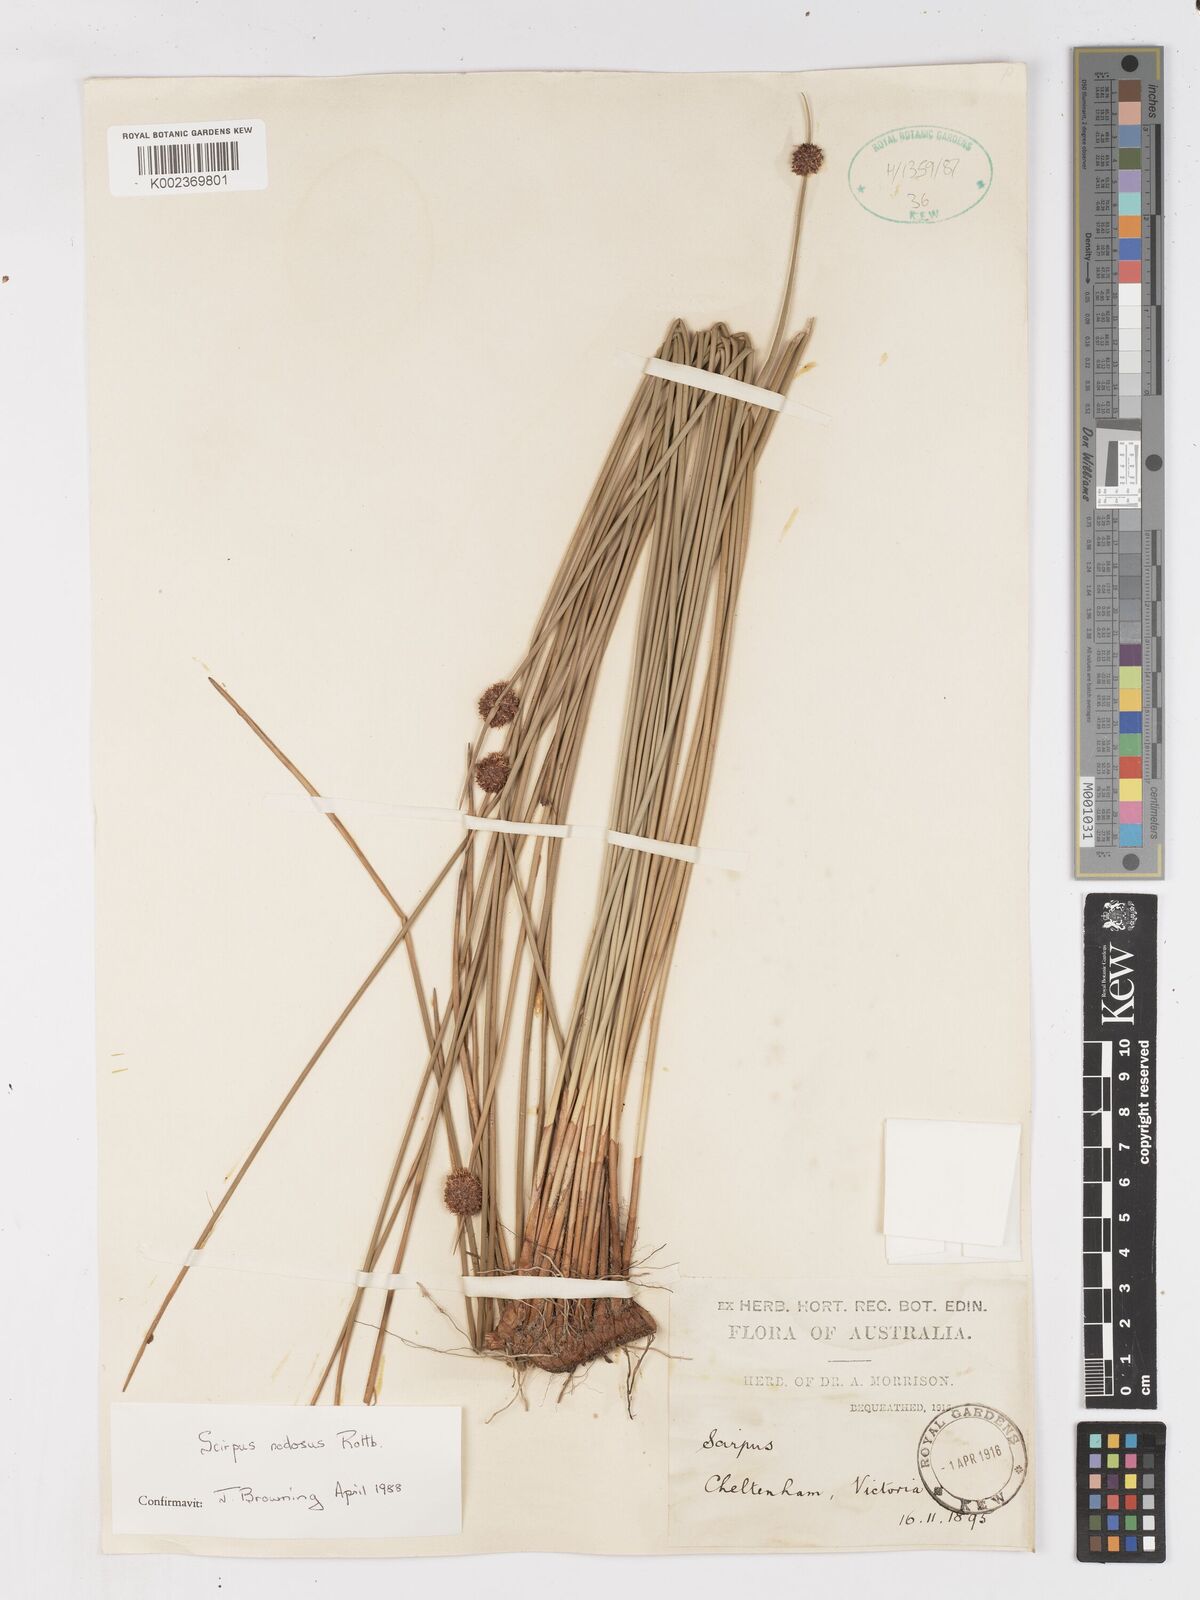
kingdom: Plantae
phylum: Tracheophyta
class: Liliopsida
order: Poales
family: Cyperaceae
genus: Ficinia
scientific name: Ficinia nodosa
